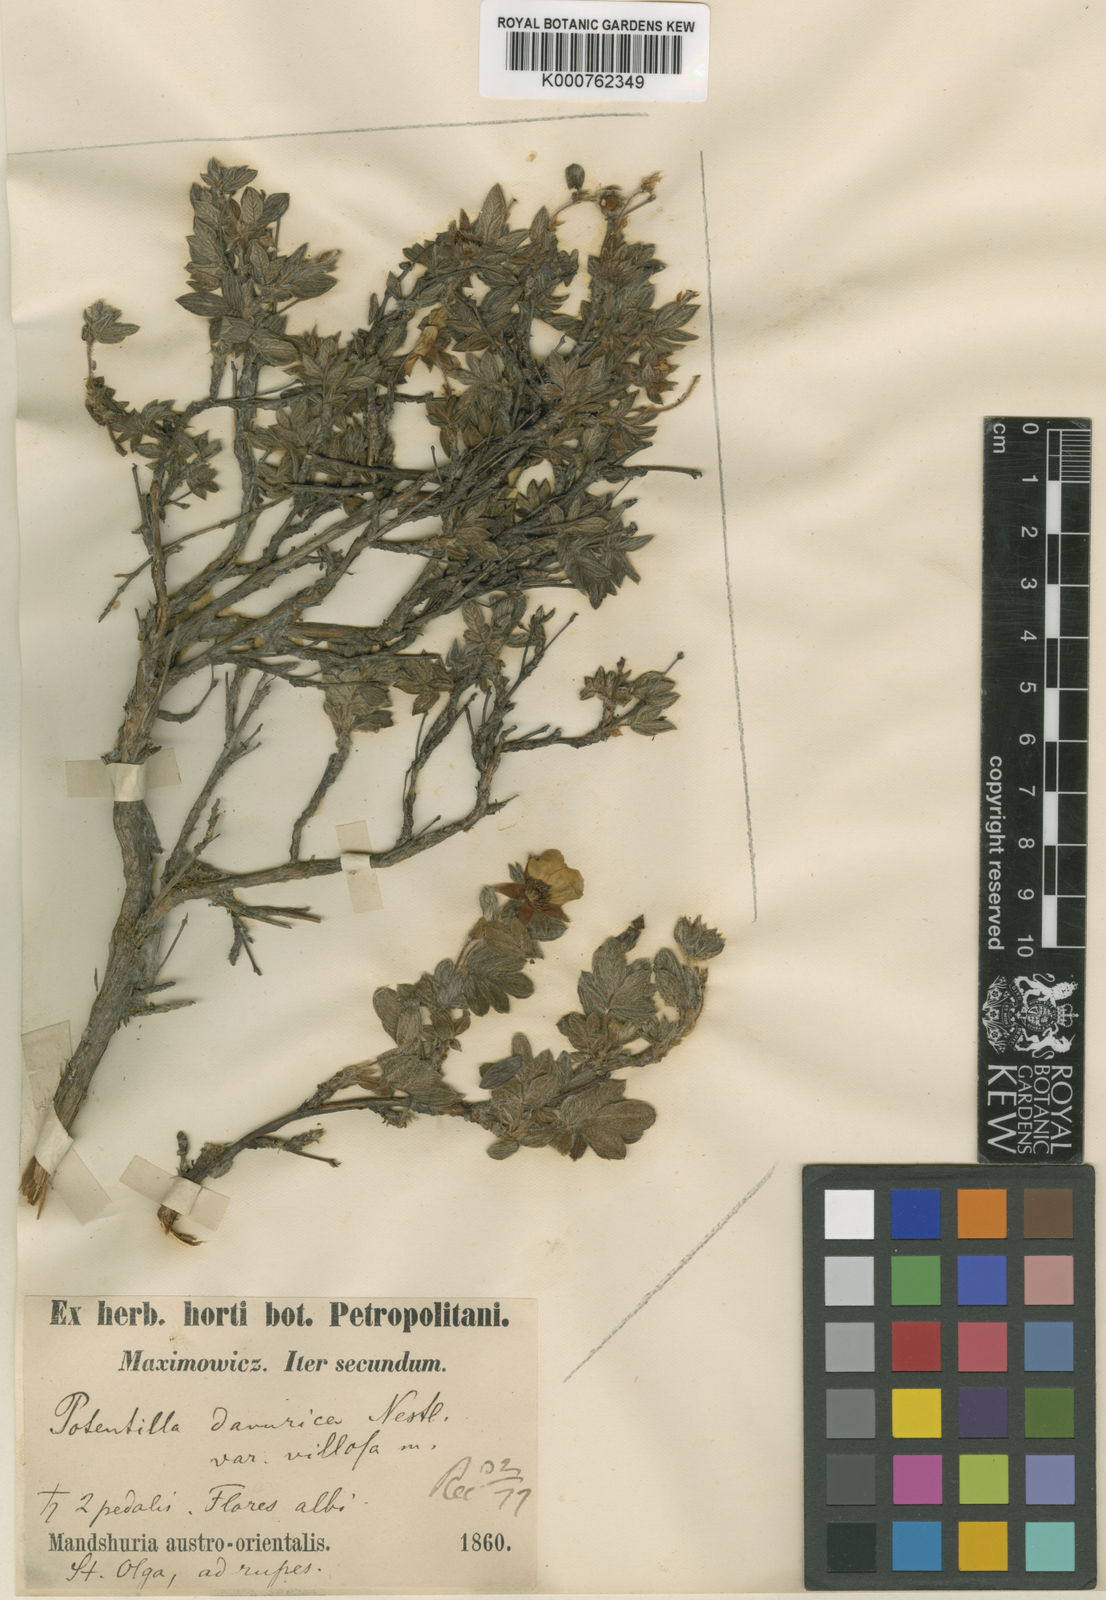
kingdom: Plantae
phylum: Tracheophyta
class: Magnoliopsida
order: Rosales
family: Rosaceae
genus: Potentilla
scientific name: Potentilla fructicosa
